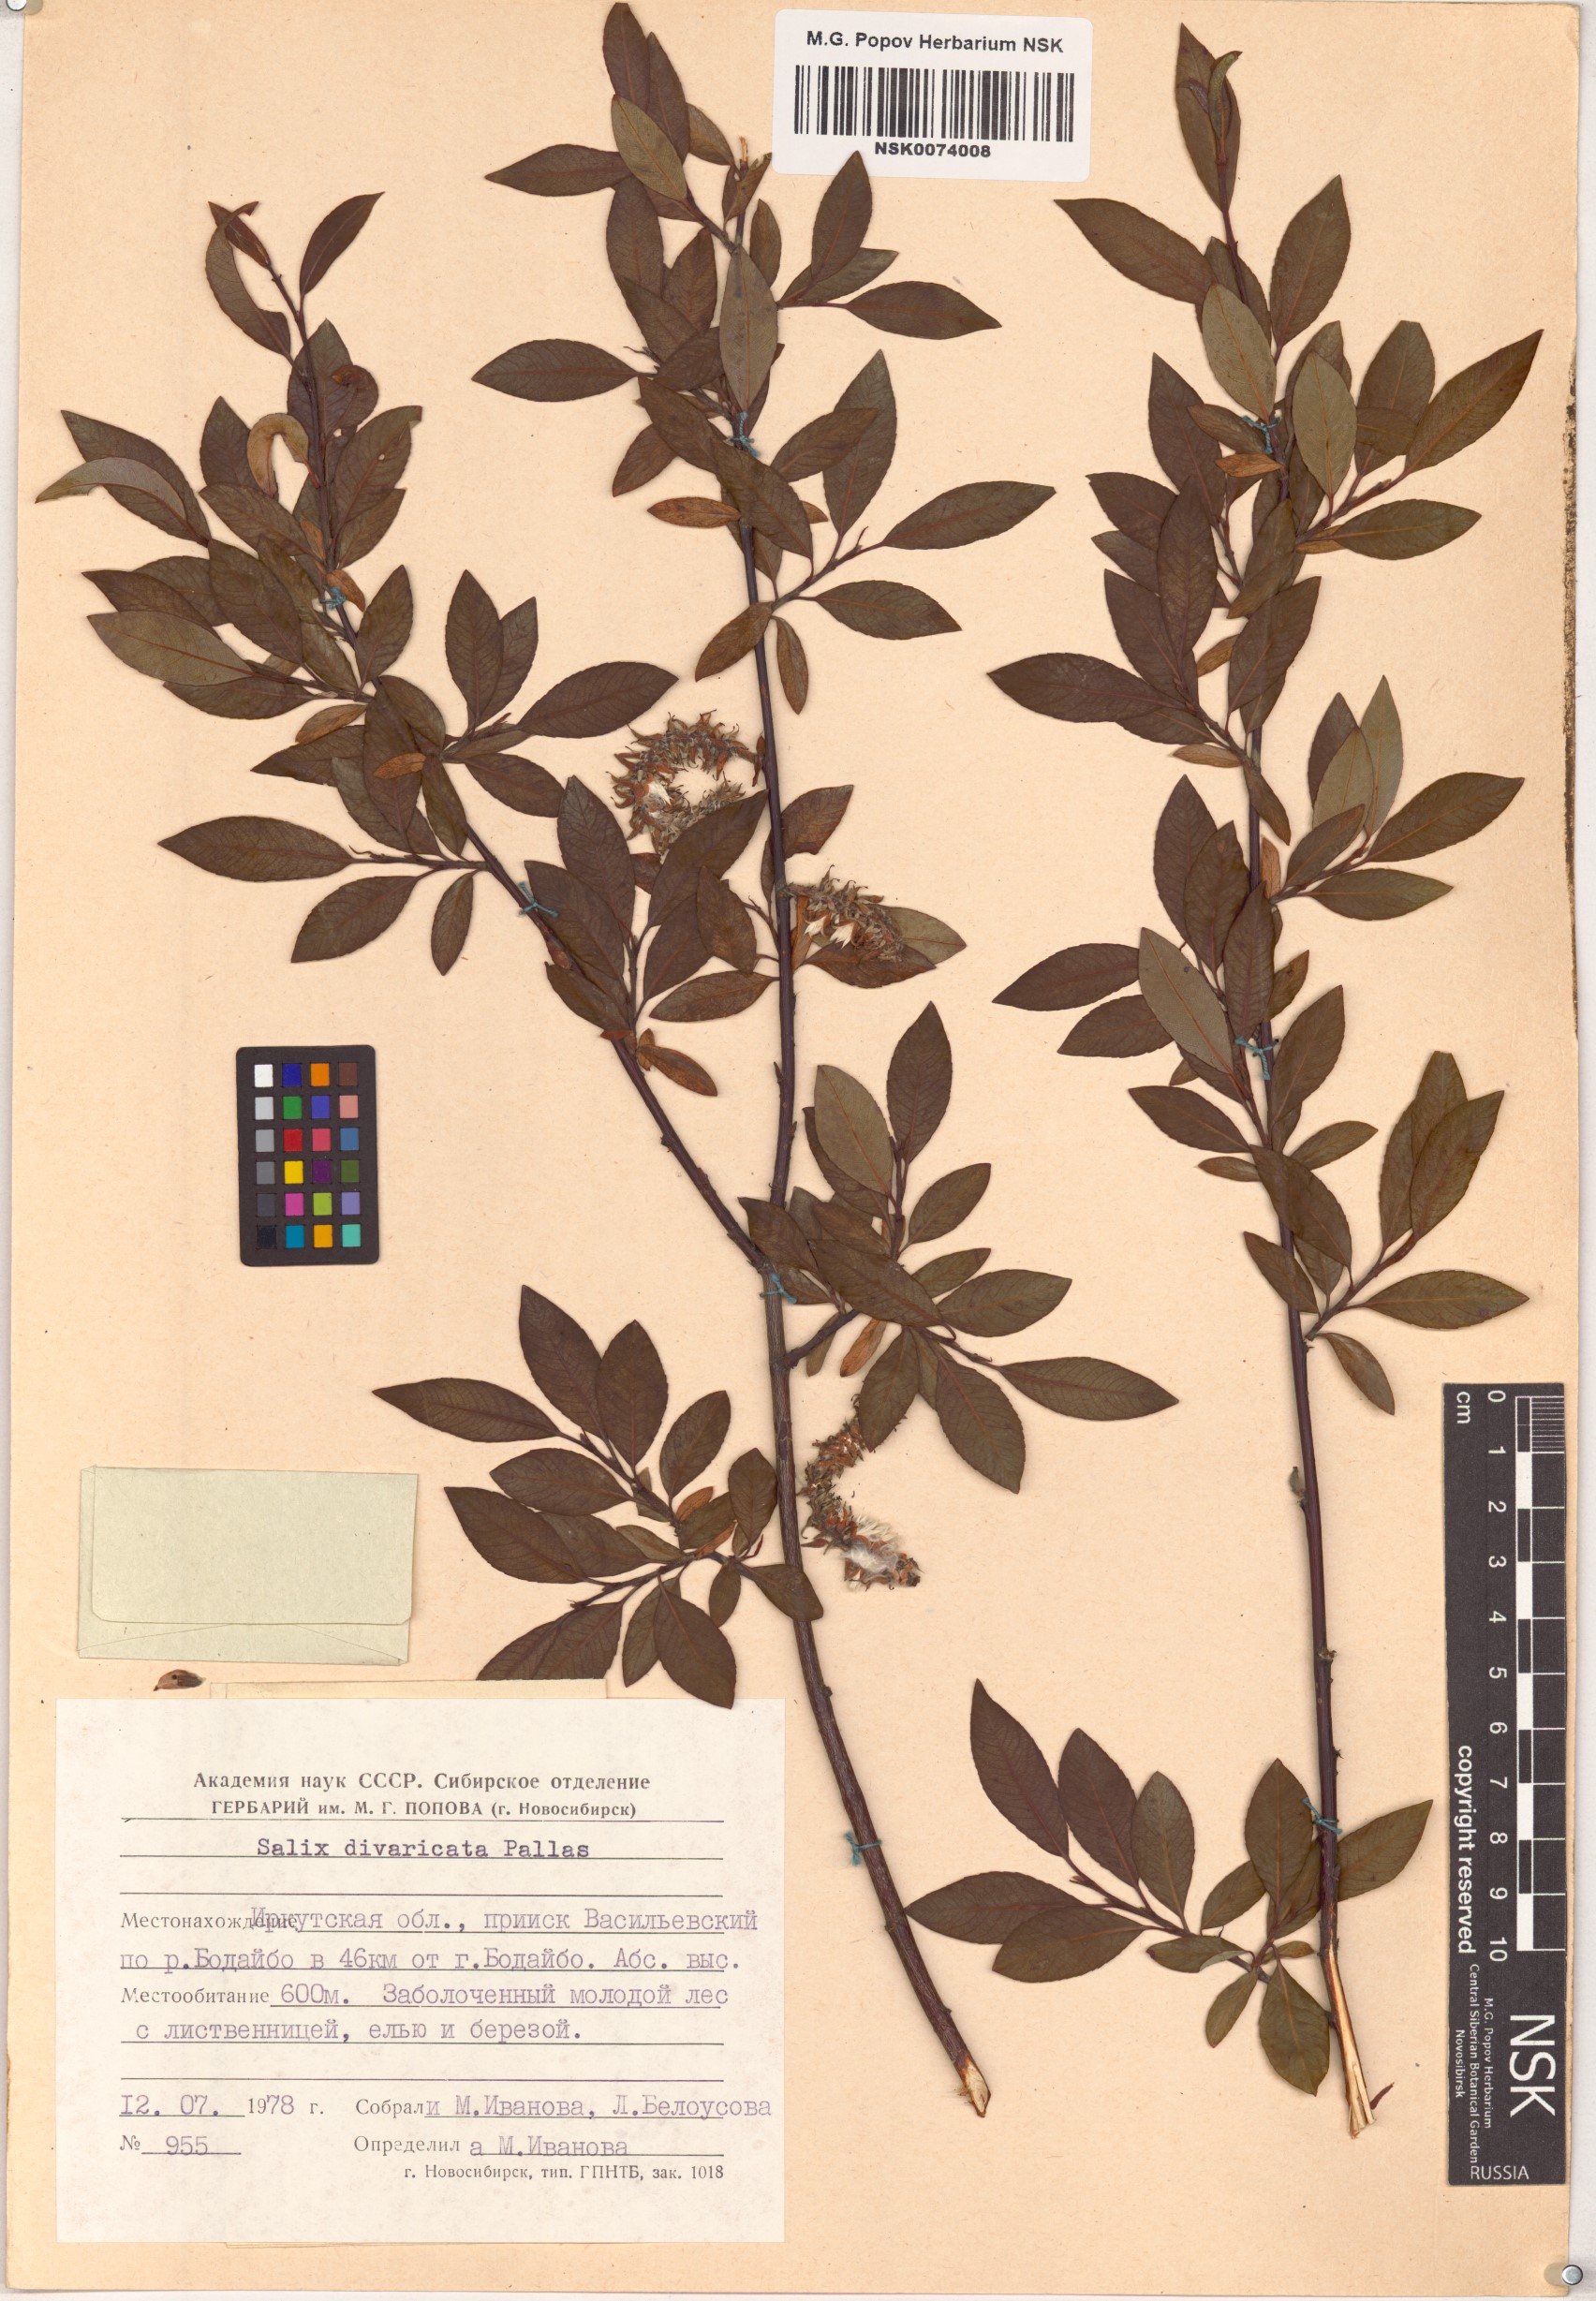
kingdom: Plantae
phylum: Tracheophyta
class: Magnoliopsida
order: Malpighiales
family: Salicaceae
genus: Salix
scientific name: Salix divaricata
